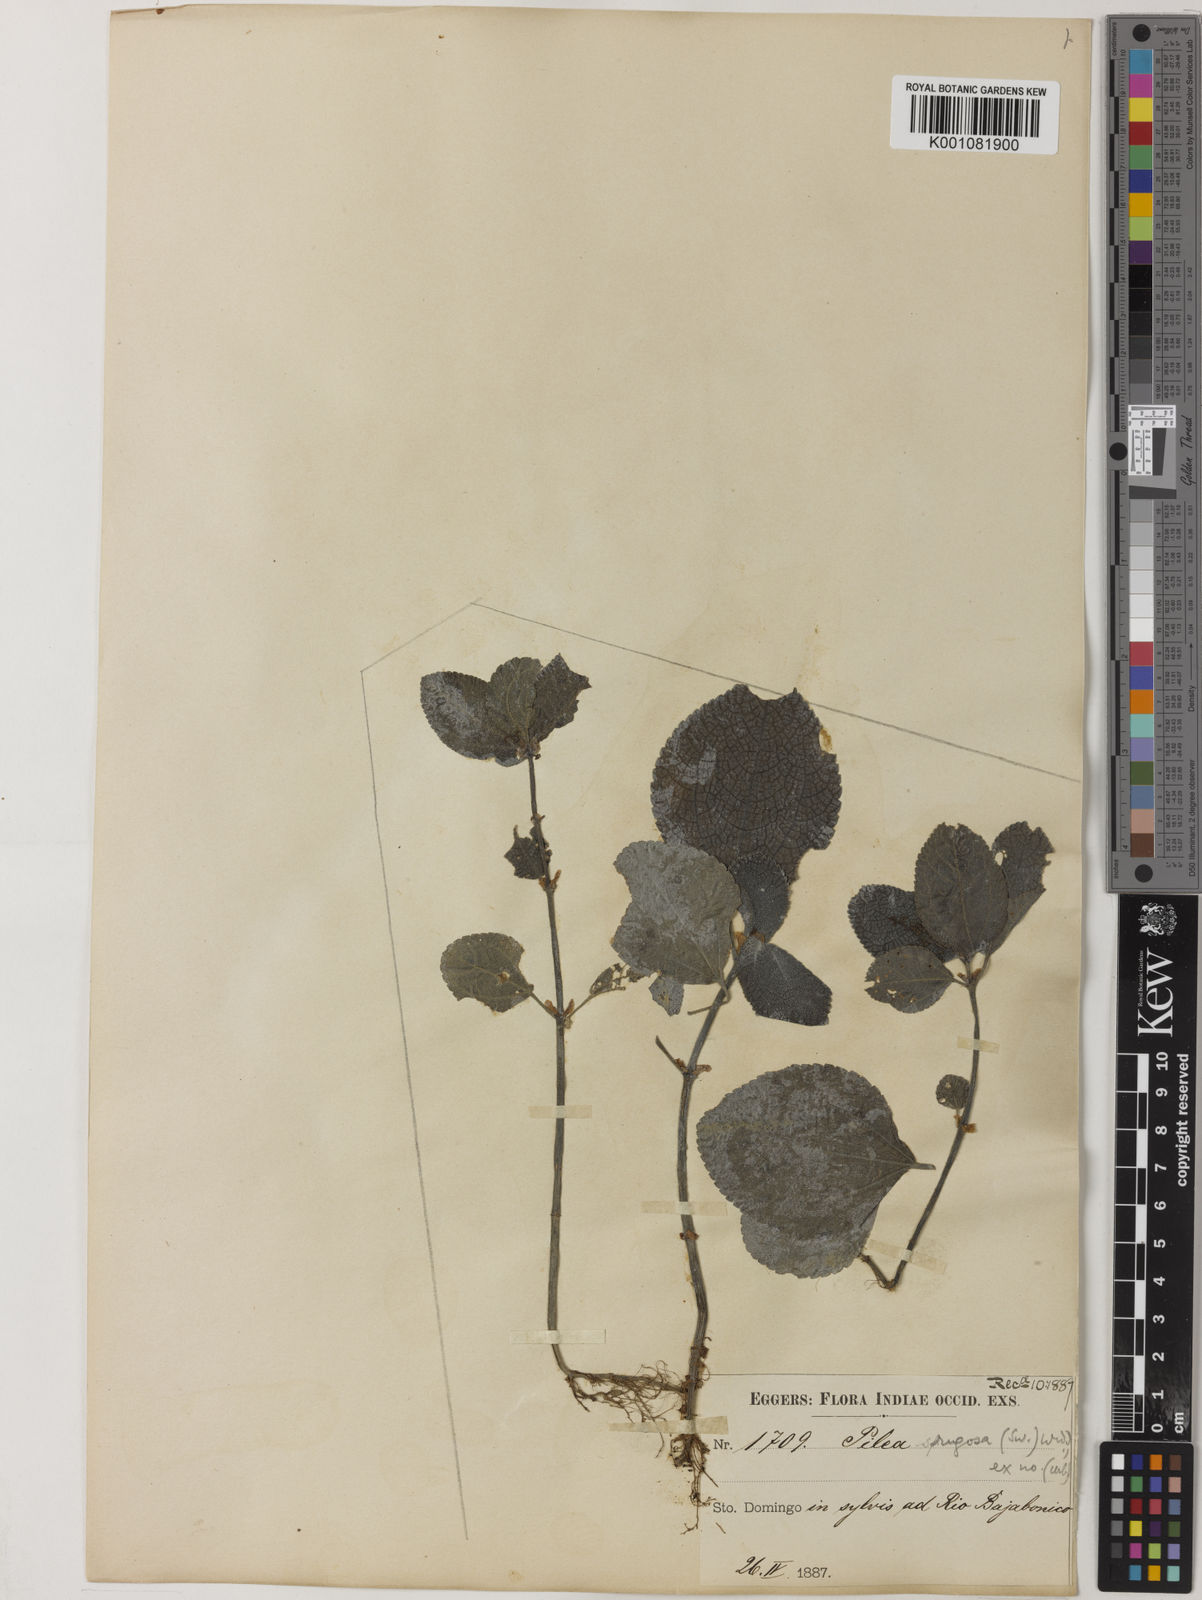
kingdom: Plantae
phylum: Tracheophyta
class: Magnoliopsida
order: Rosales
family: Urticaceae
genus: Pilea
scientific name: Pilea rugosa
